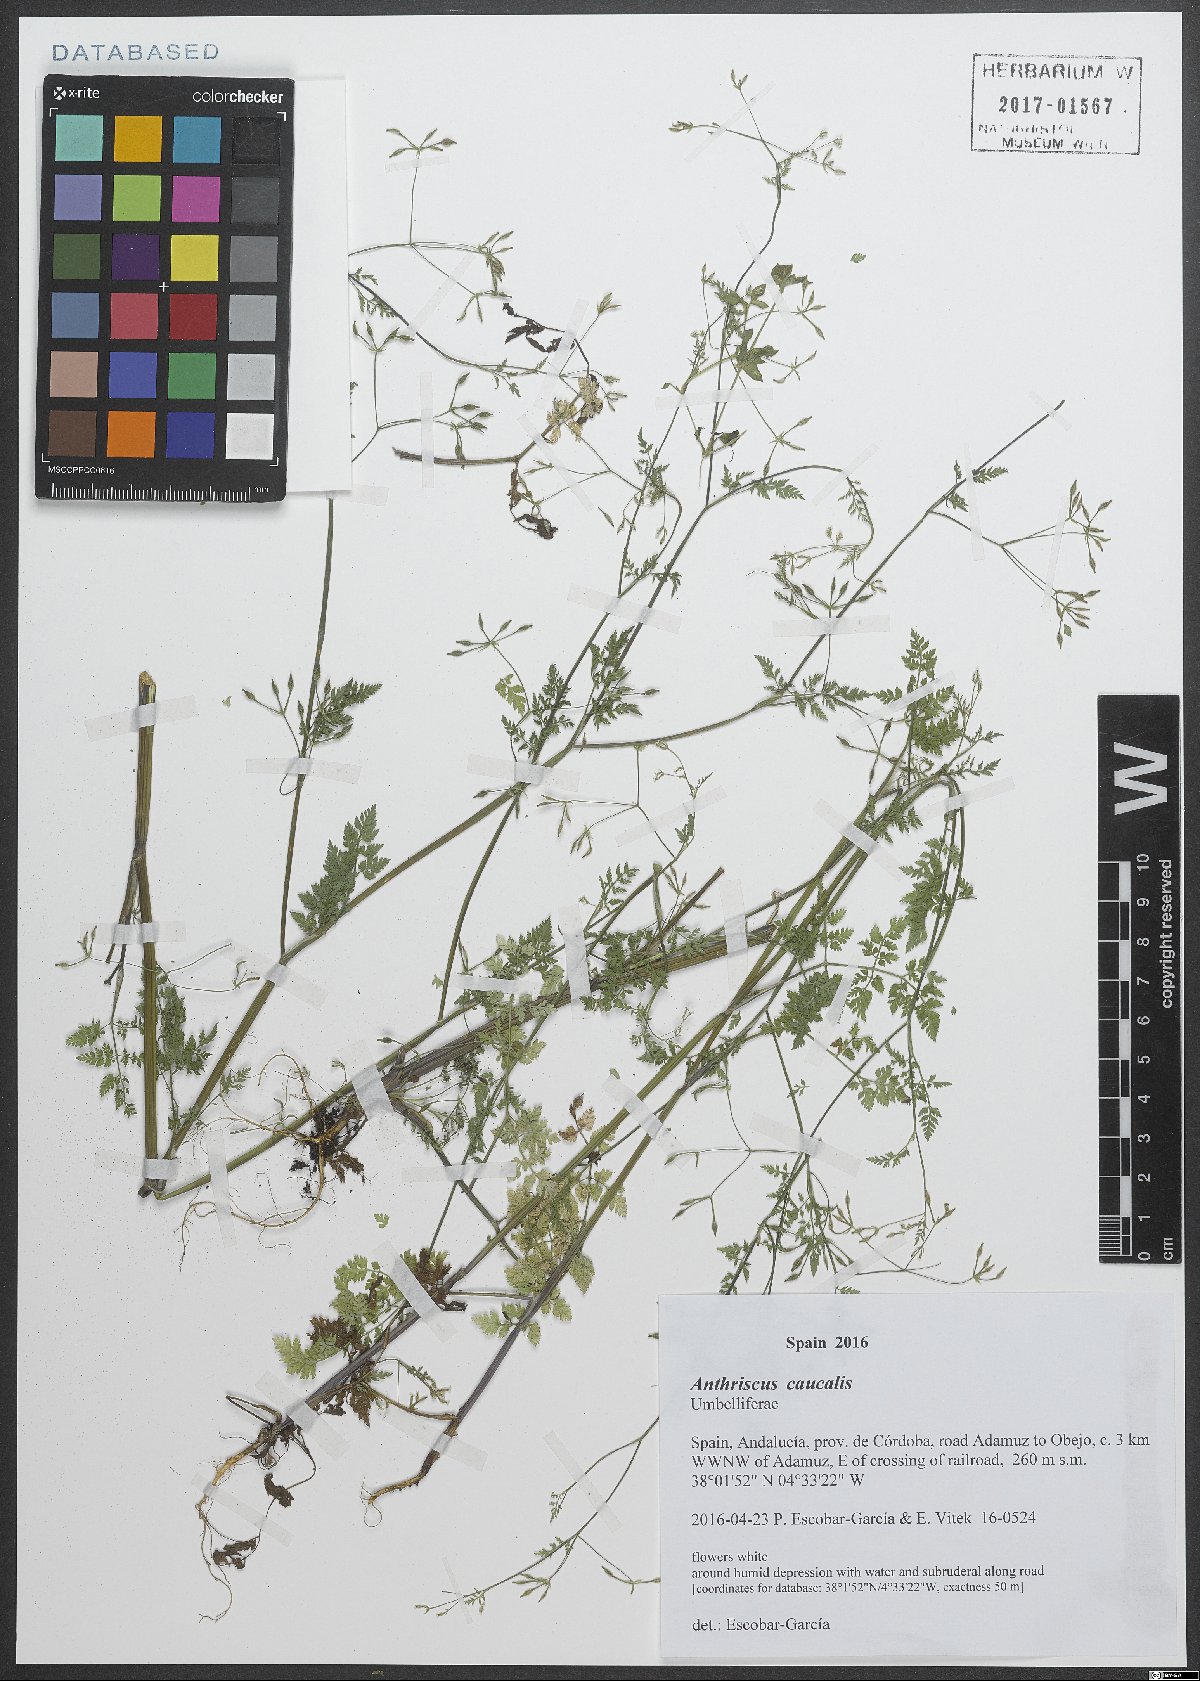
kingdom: Plantae
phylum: Tracheophyta
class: Magnoliopsida
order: Apiales
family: Apiaceae
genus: Anthriscus
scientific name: Anthriscus caucalis
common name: Bur chervil
